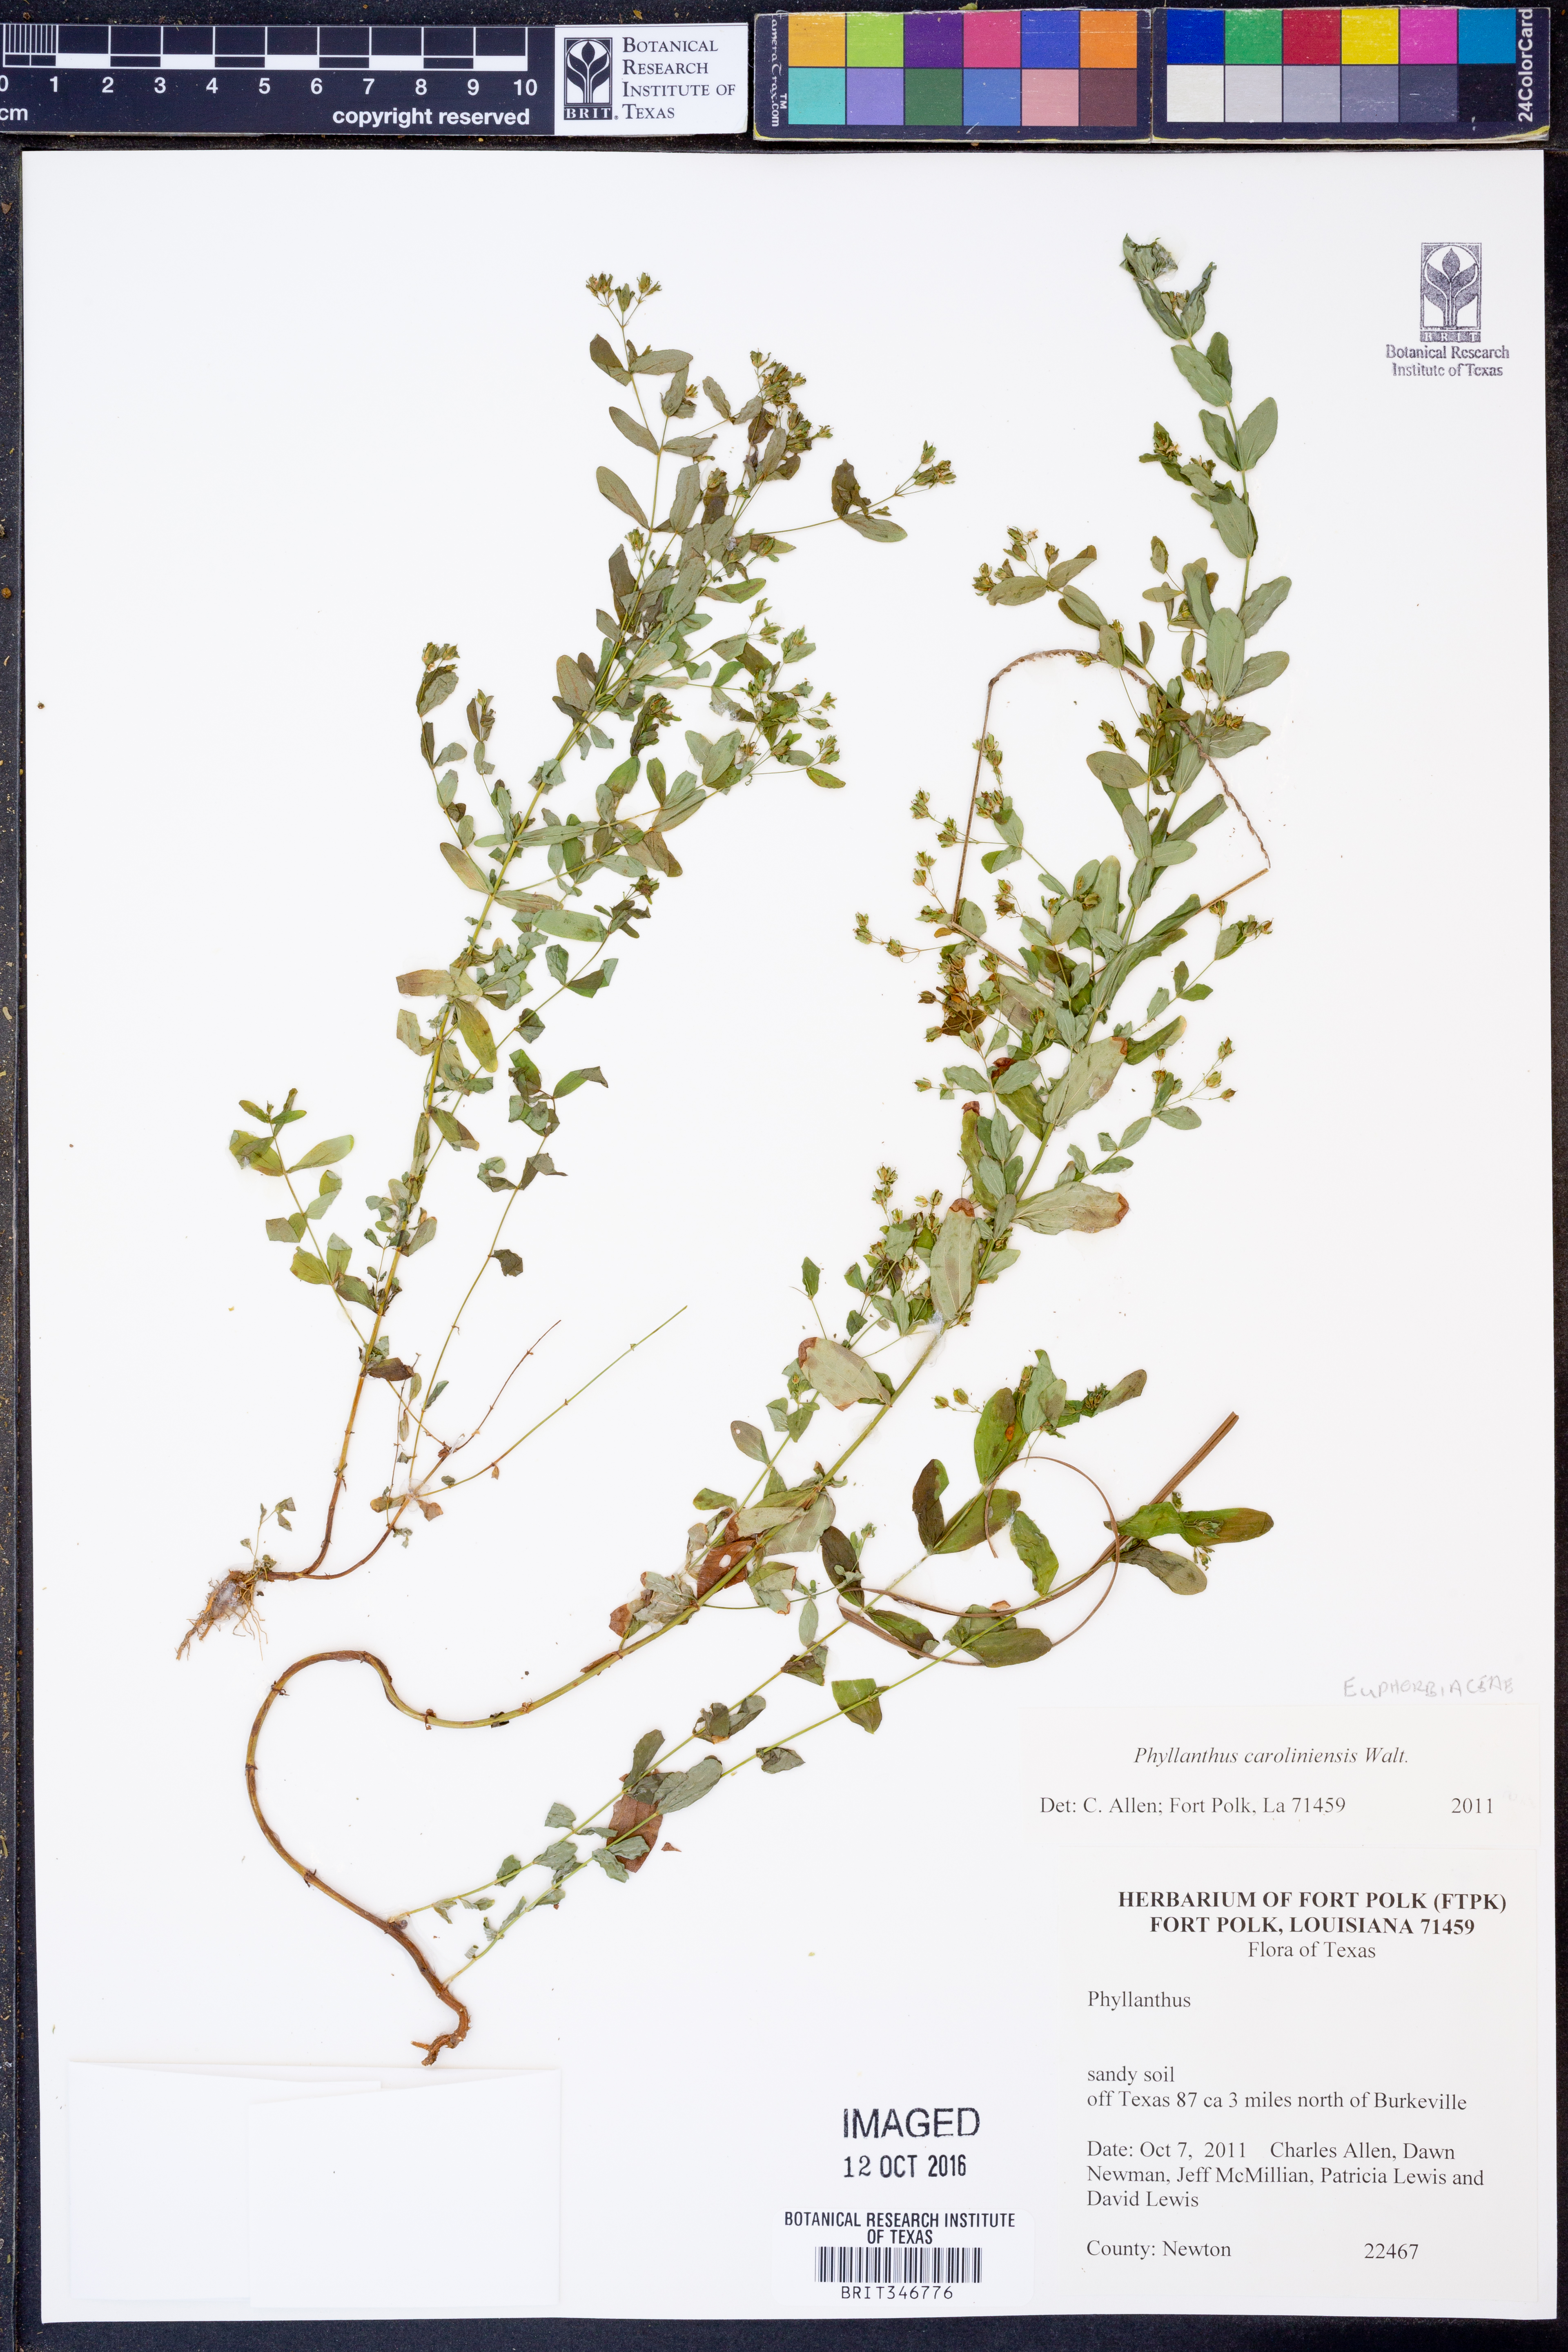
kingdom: Plantae
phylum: Tracheophyta
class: Magnoliopsida
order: Malpighiales
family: Phyllanthaceae
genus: Phyllanthus
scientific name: Phyllanthus caroliniensis
